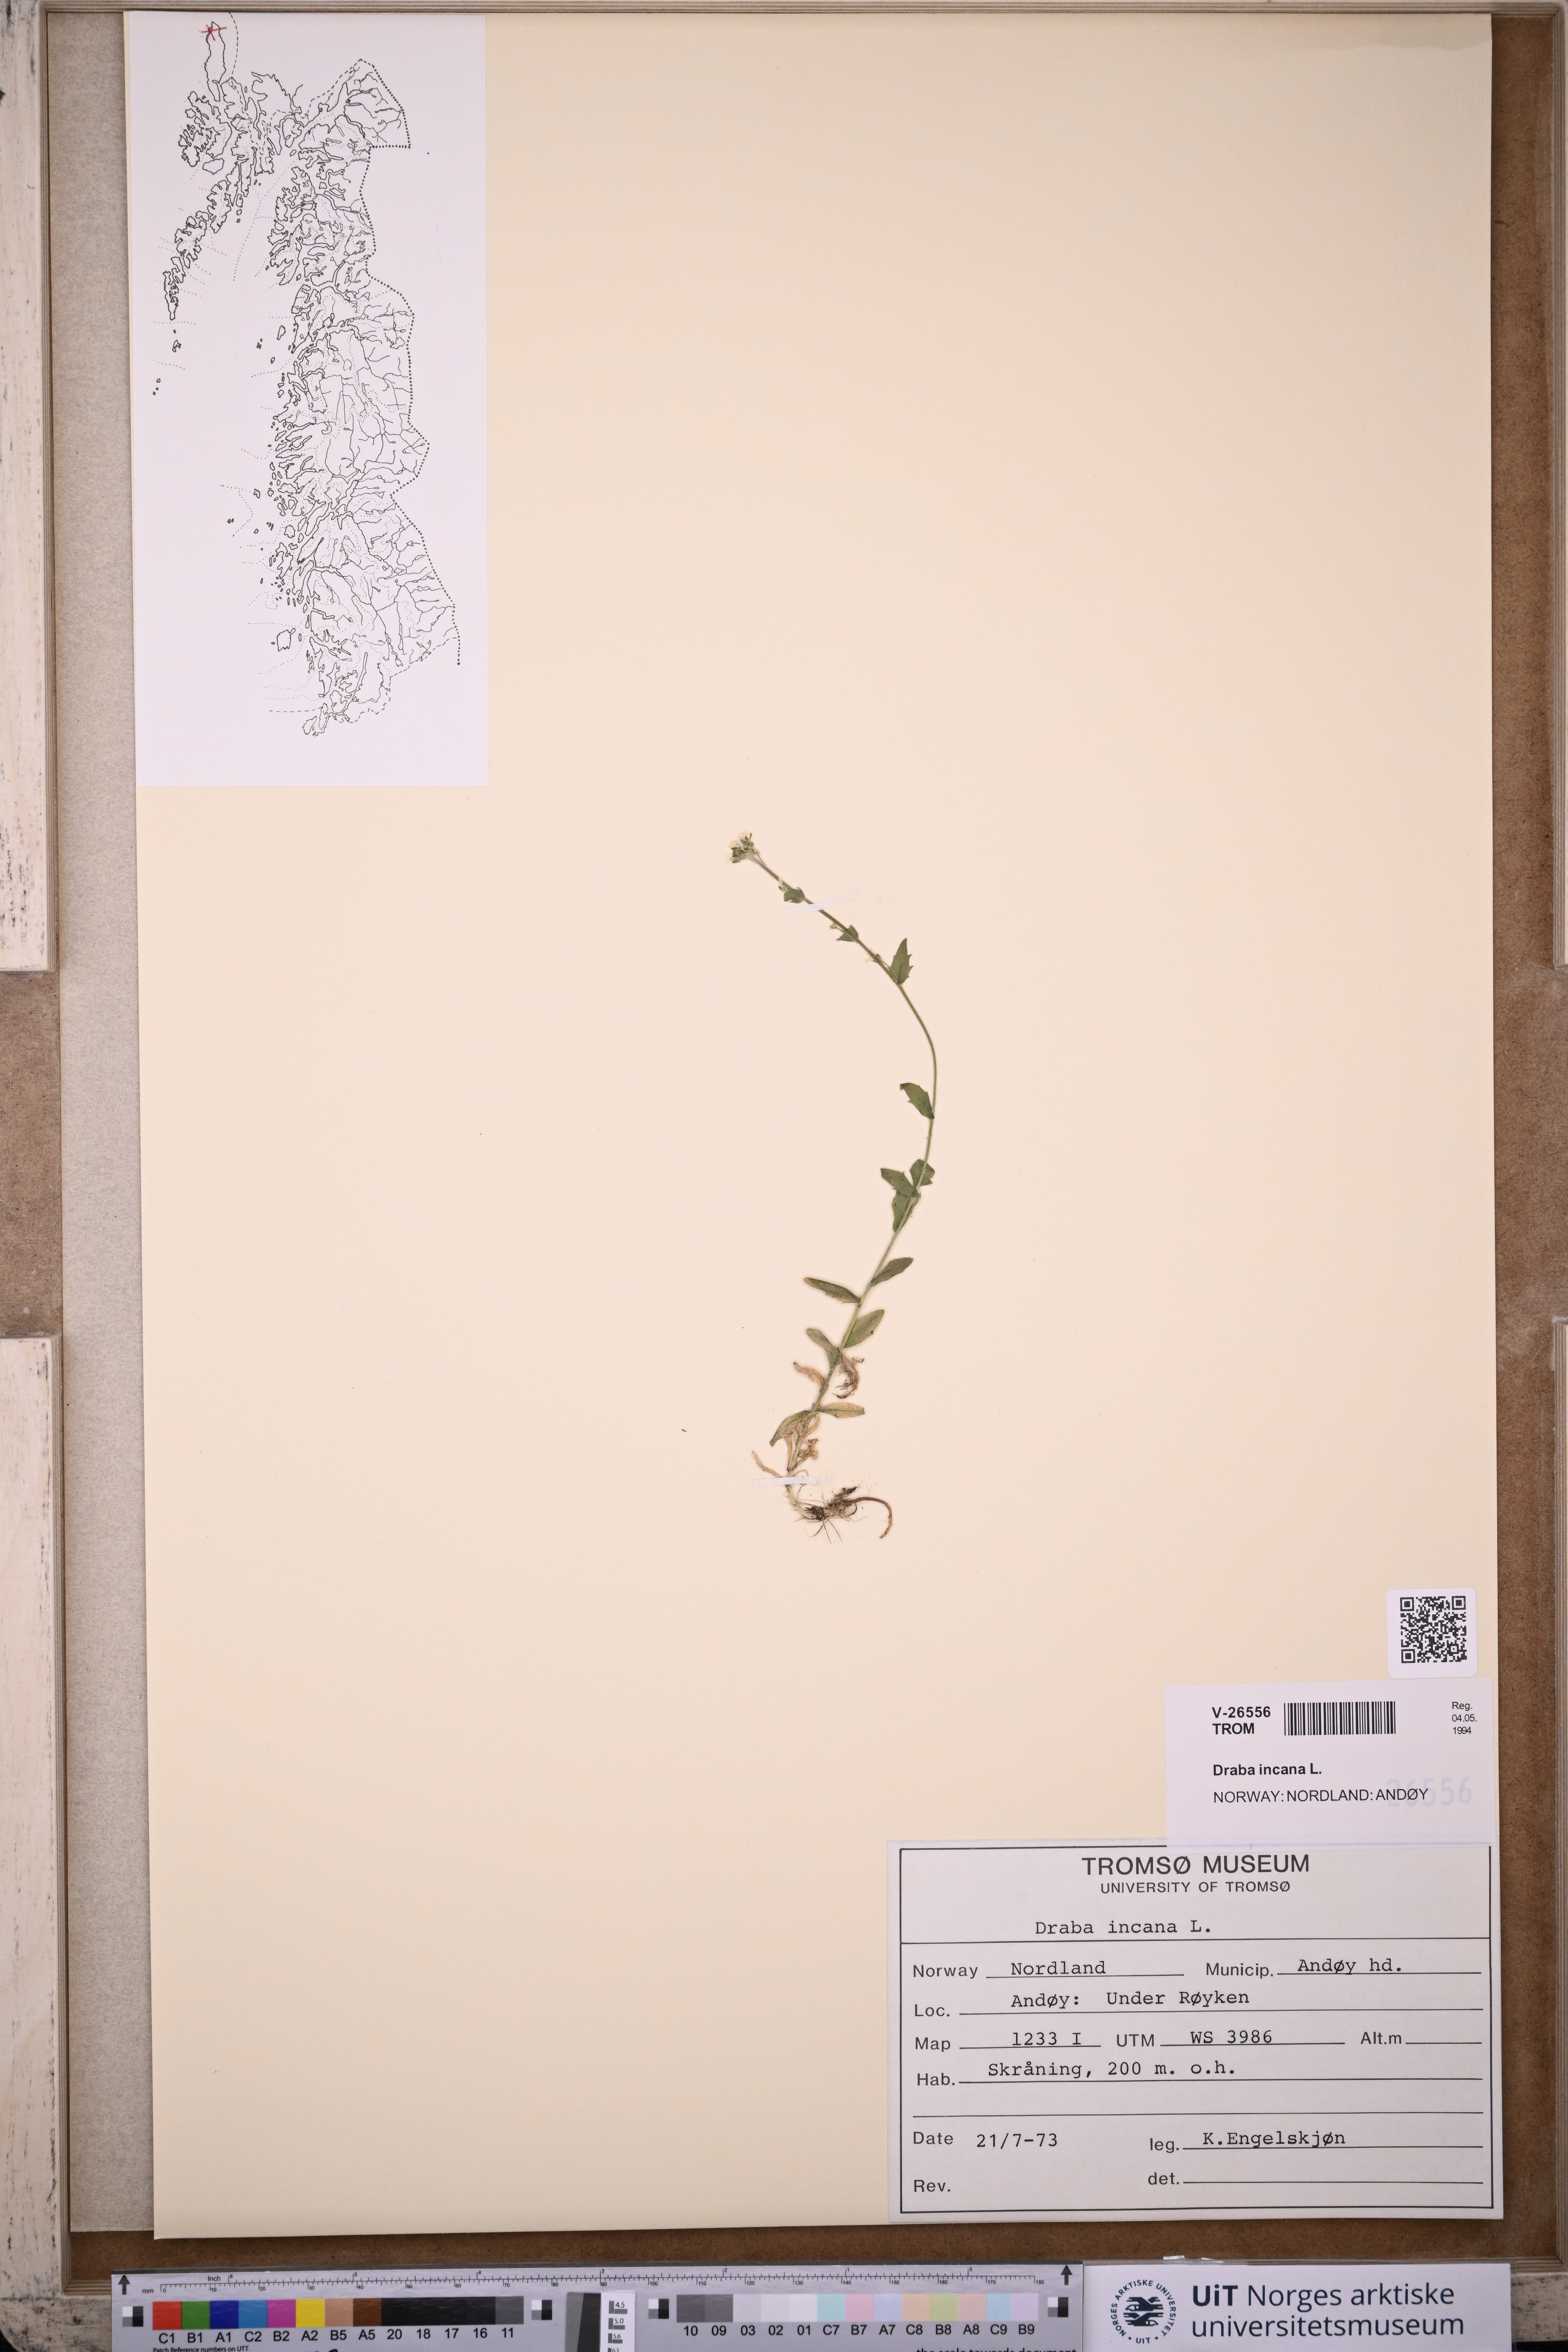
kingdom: Plantae
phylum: Tracheophyta
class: Magnoliopsida
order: Brassicales
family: Brassicaceae
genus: Draba
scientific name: Draba incana
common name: Hoary whitlow-grass
